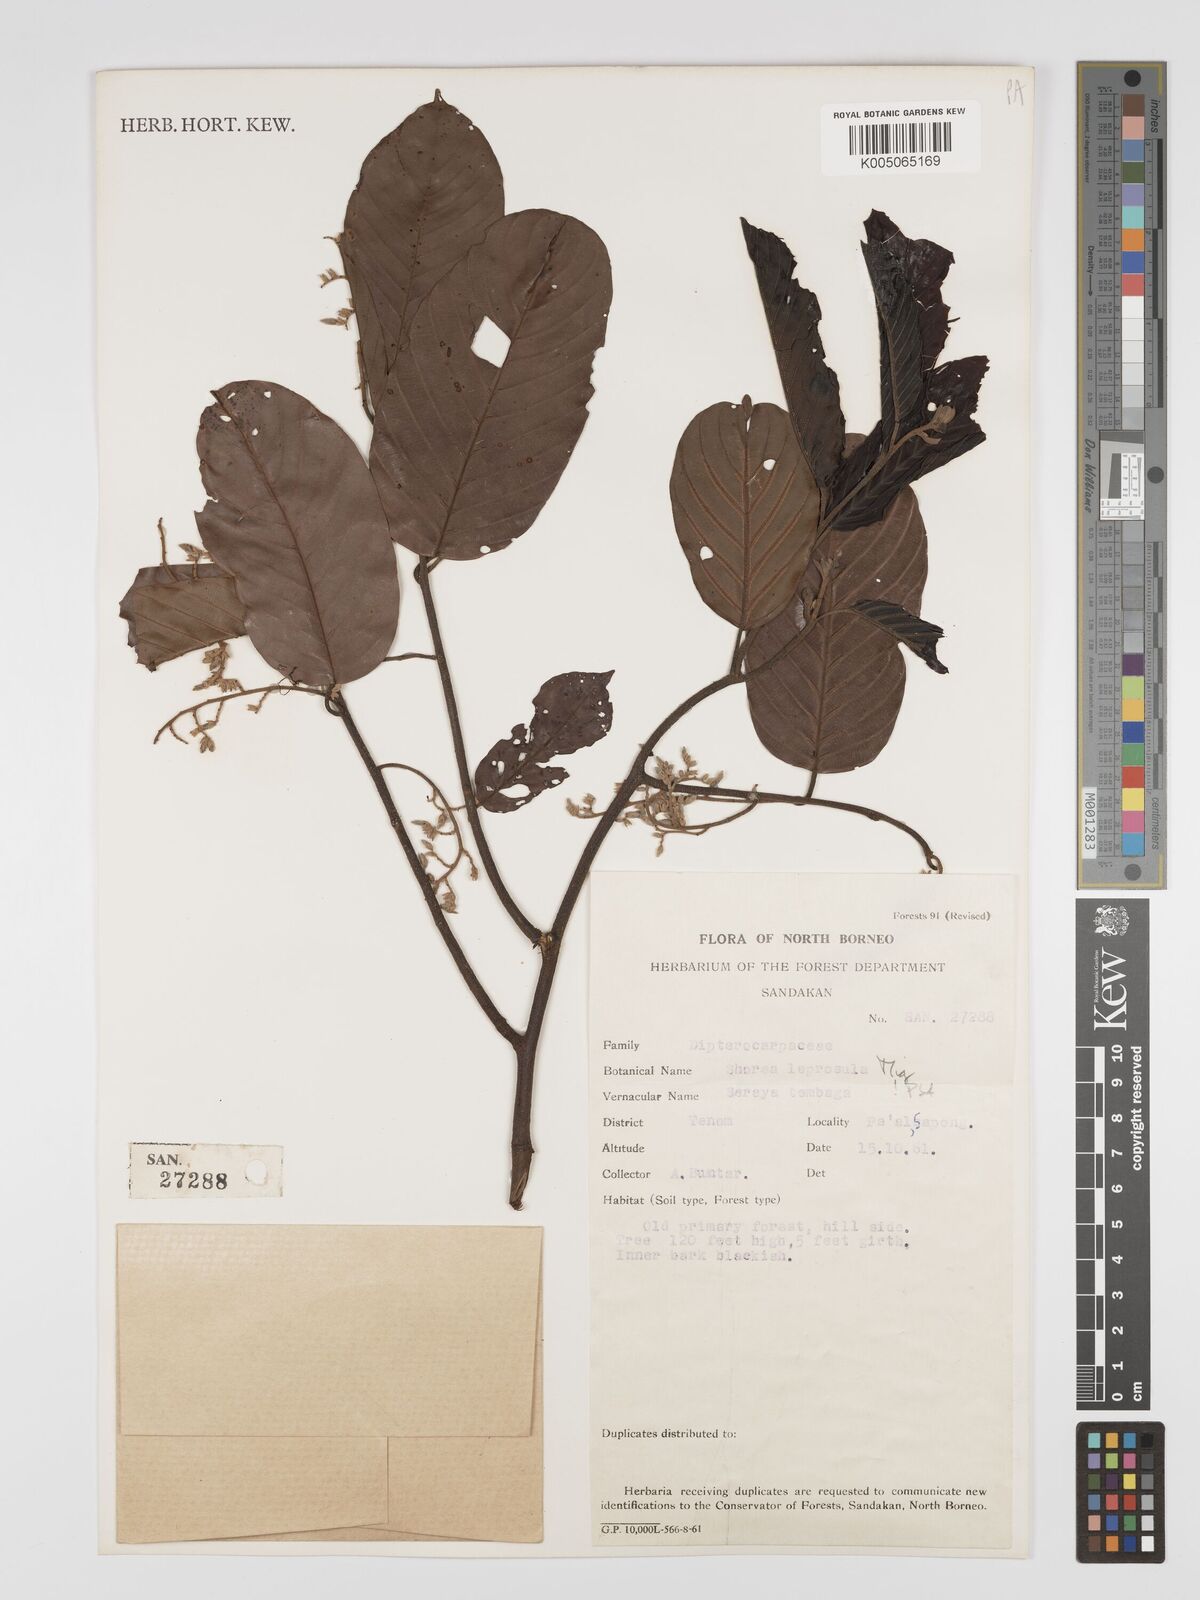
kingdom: Plantae
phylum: Tracheophyta
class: Magnoliopsida
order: Malvales
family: Dipterocarpaceae
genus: Shorea
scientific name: Shorea leprosula
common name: Light red meranti
